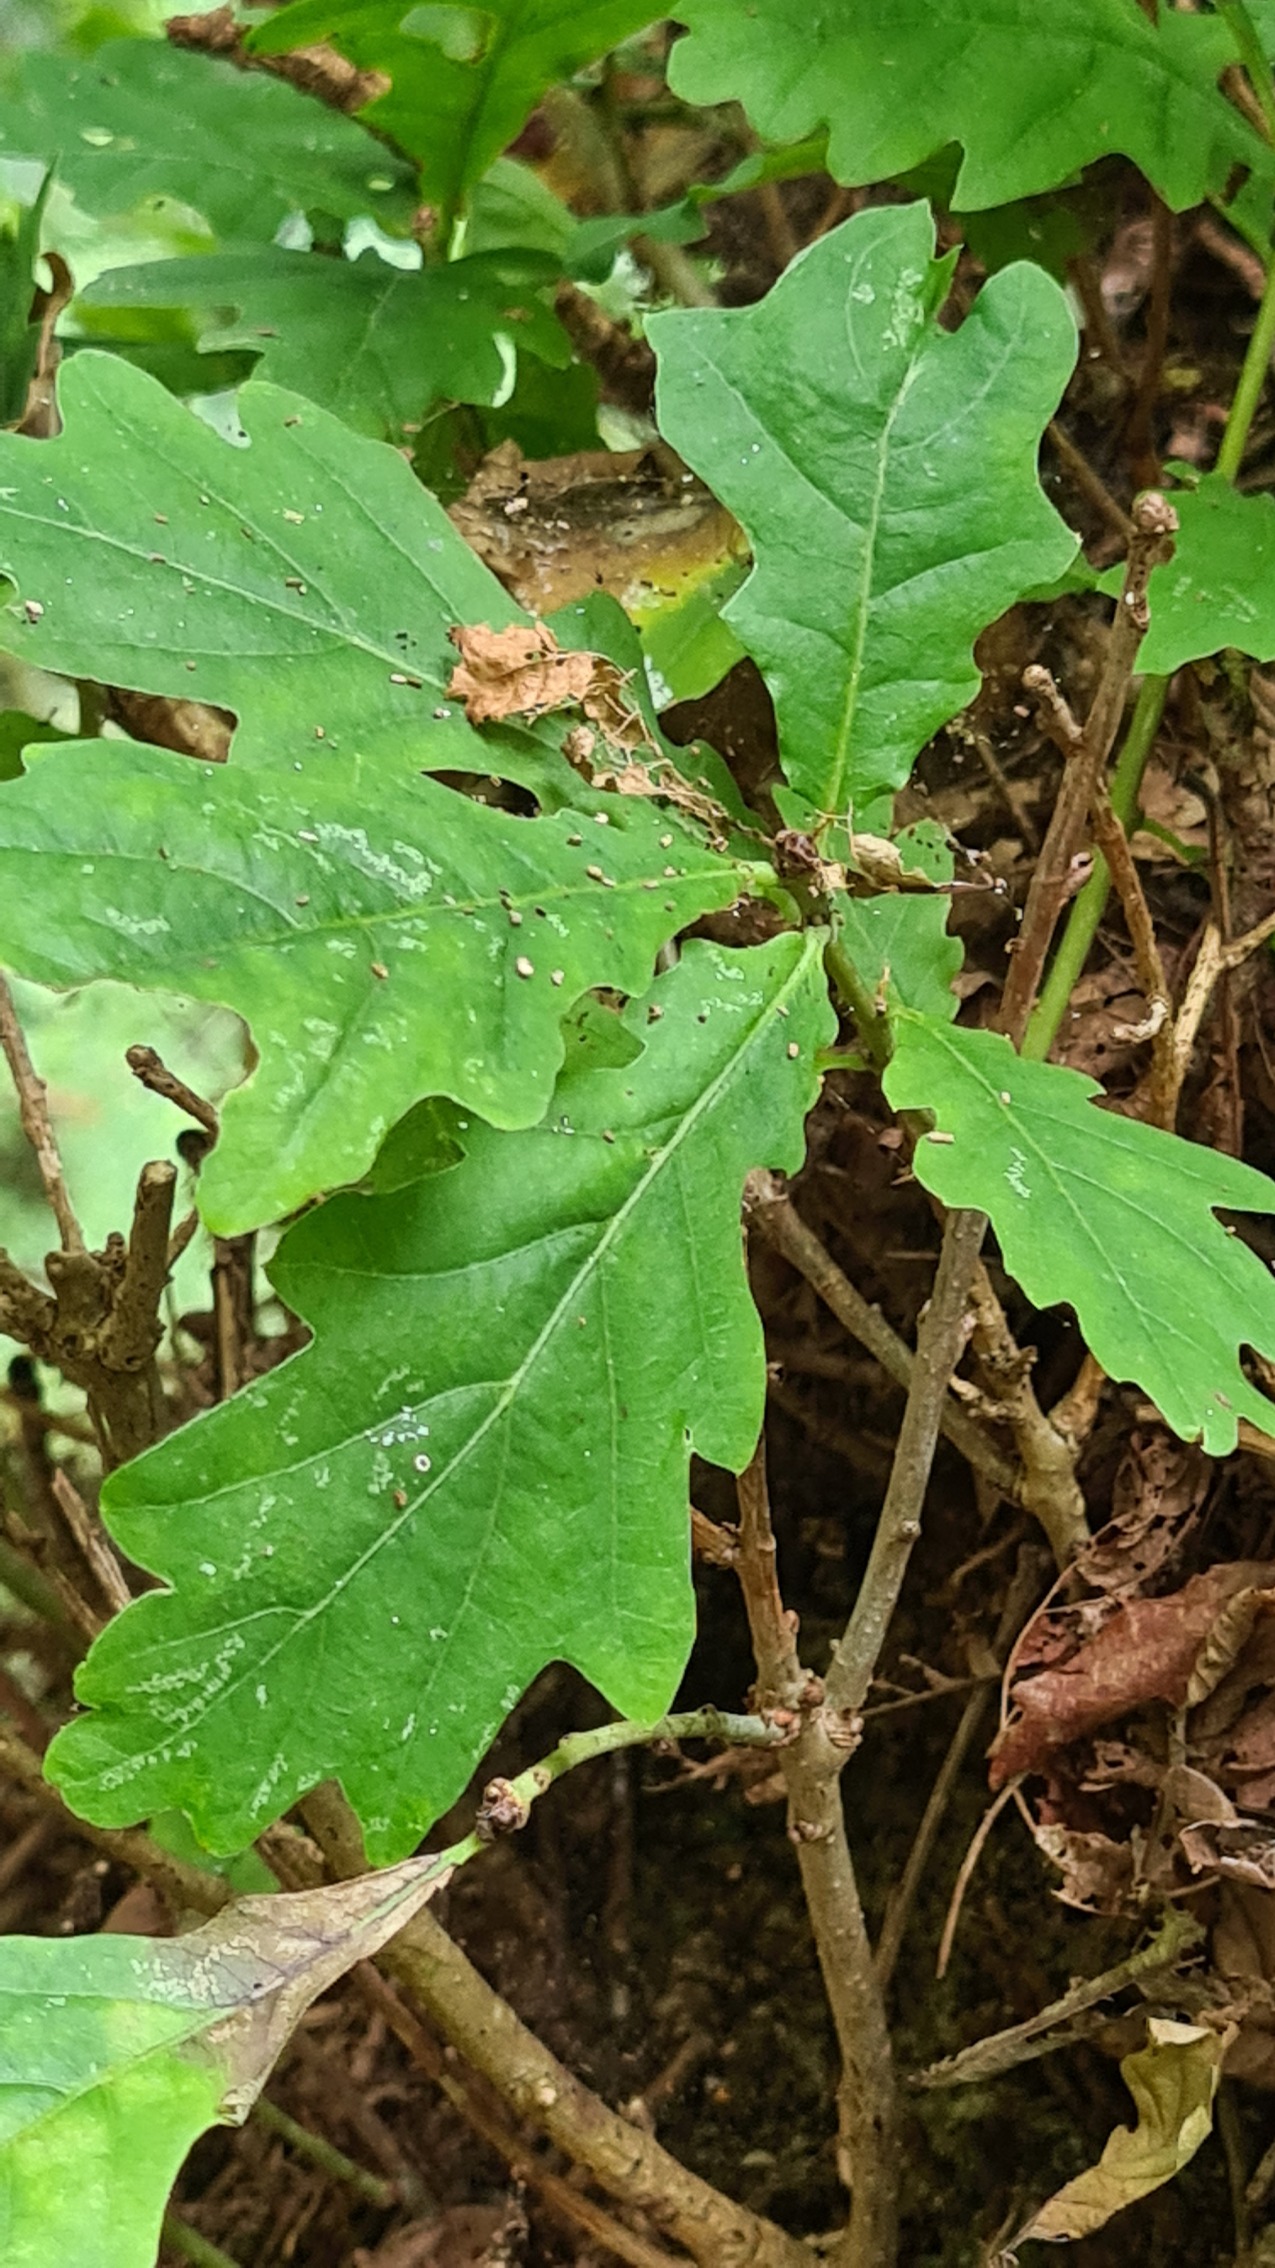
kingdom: Plantae
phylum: Tracheophyta
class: Magnoliopsida
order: Fagales
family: Fagaceae
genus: Quercus
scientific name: Quercus robur
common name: Stilk-eg/almindelig eg
